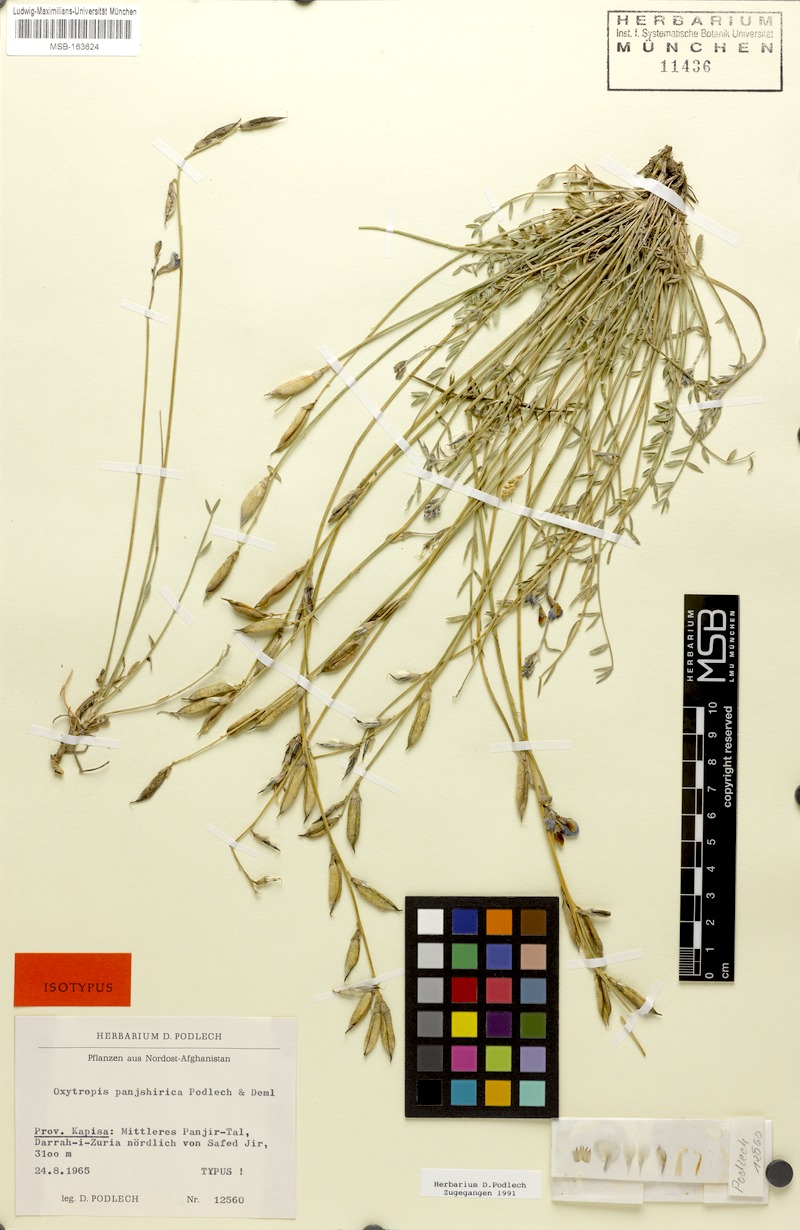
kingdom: Plantae
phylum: Tracheophyta
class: Magnoliopsida
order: Fabales
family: Fabaceae
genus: Oxytropis
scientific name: Oxytropis panjshirica
